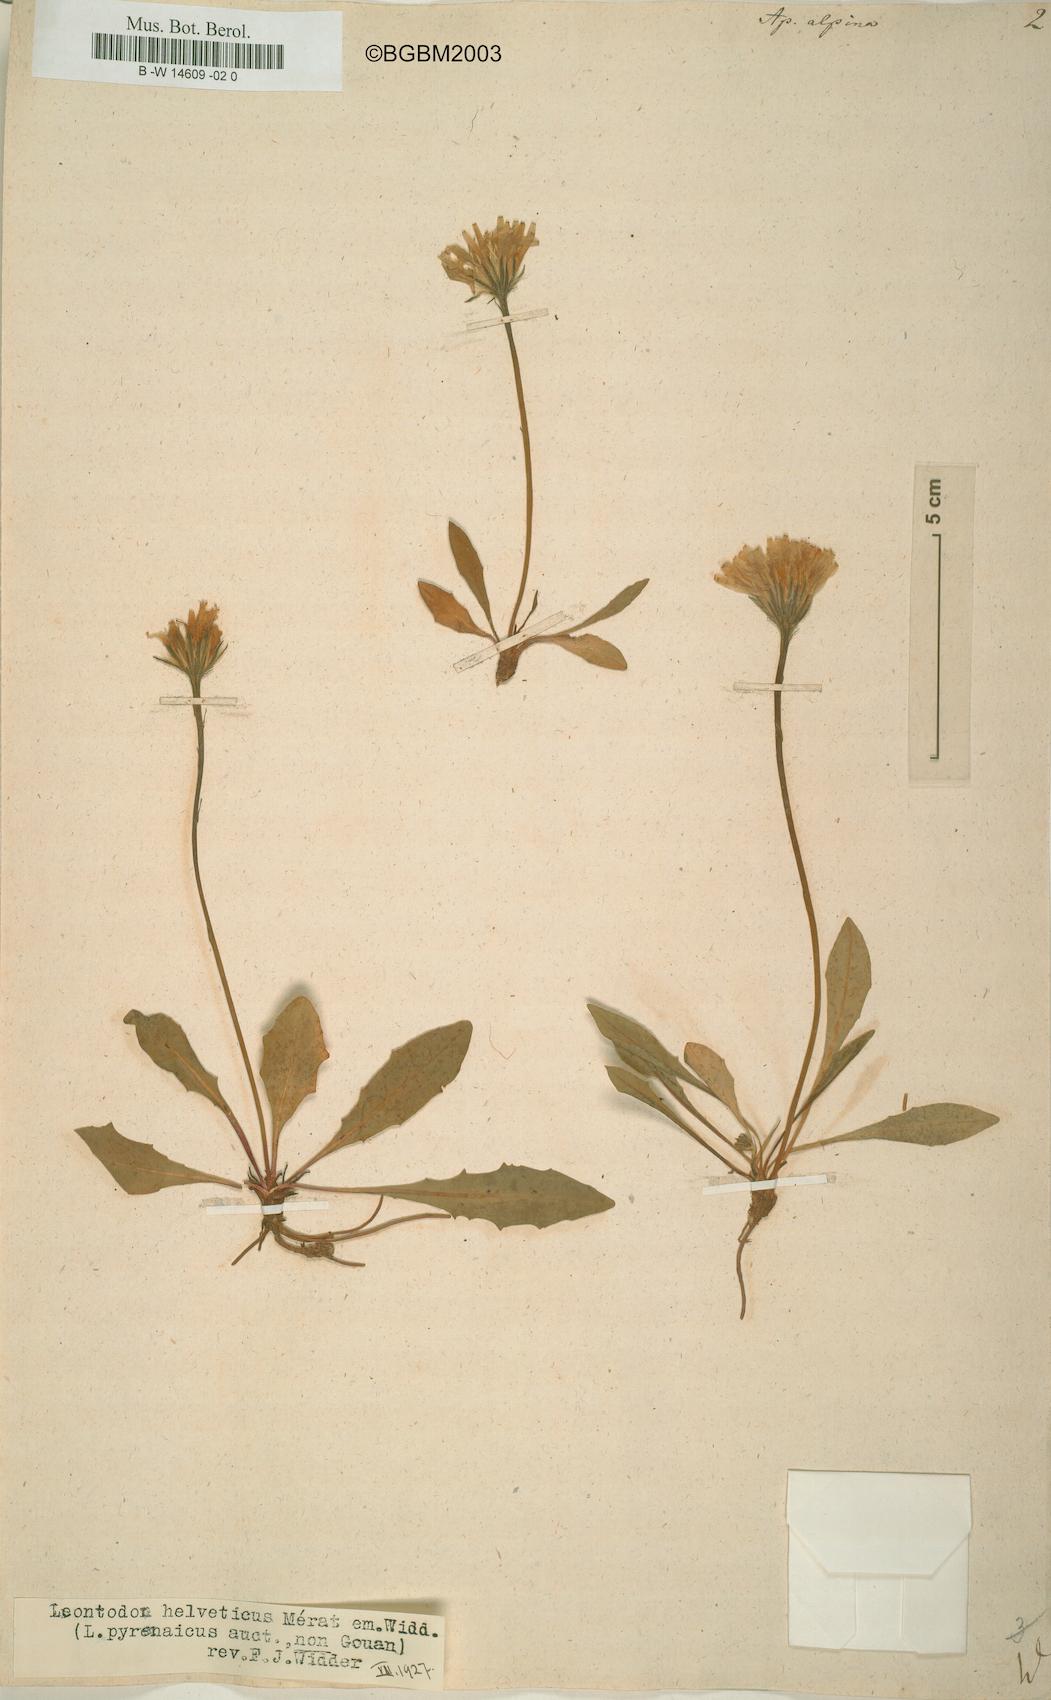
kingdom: Plantae
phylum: Tracheophyta
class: Magnoliopsida
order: Asterales
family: Asteraceae
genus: Scorzoneroides
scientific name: Scorzoneroides pyrenaica
